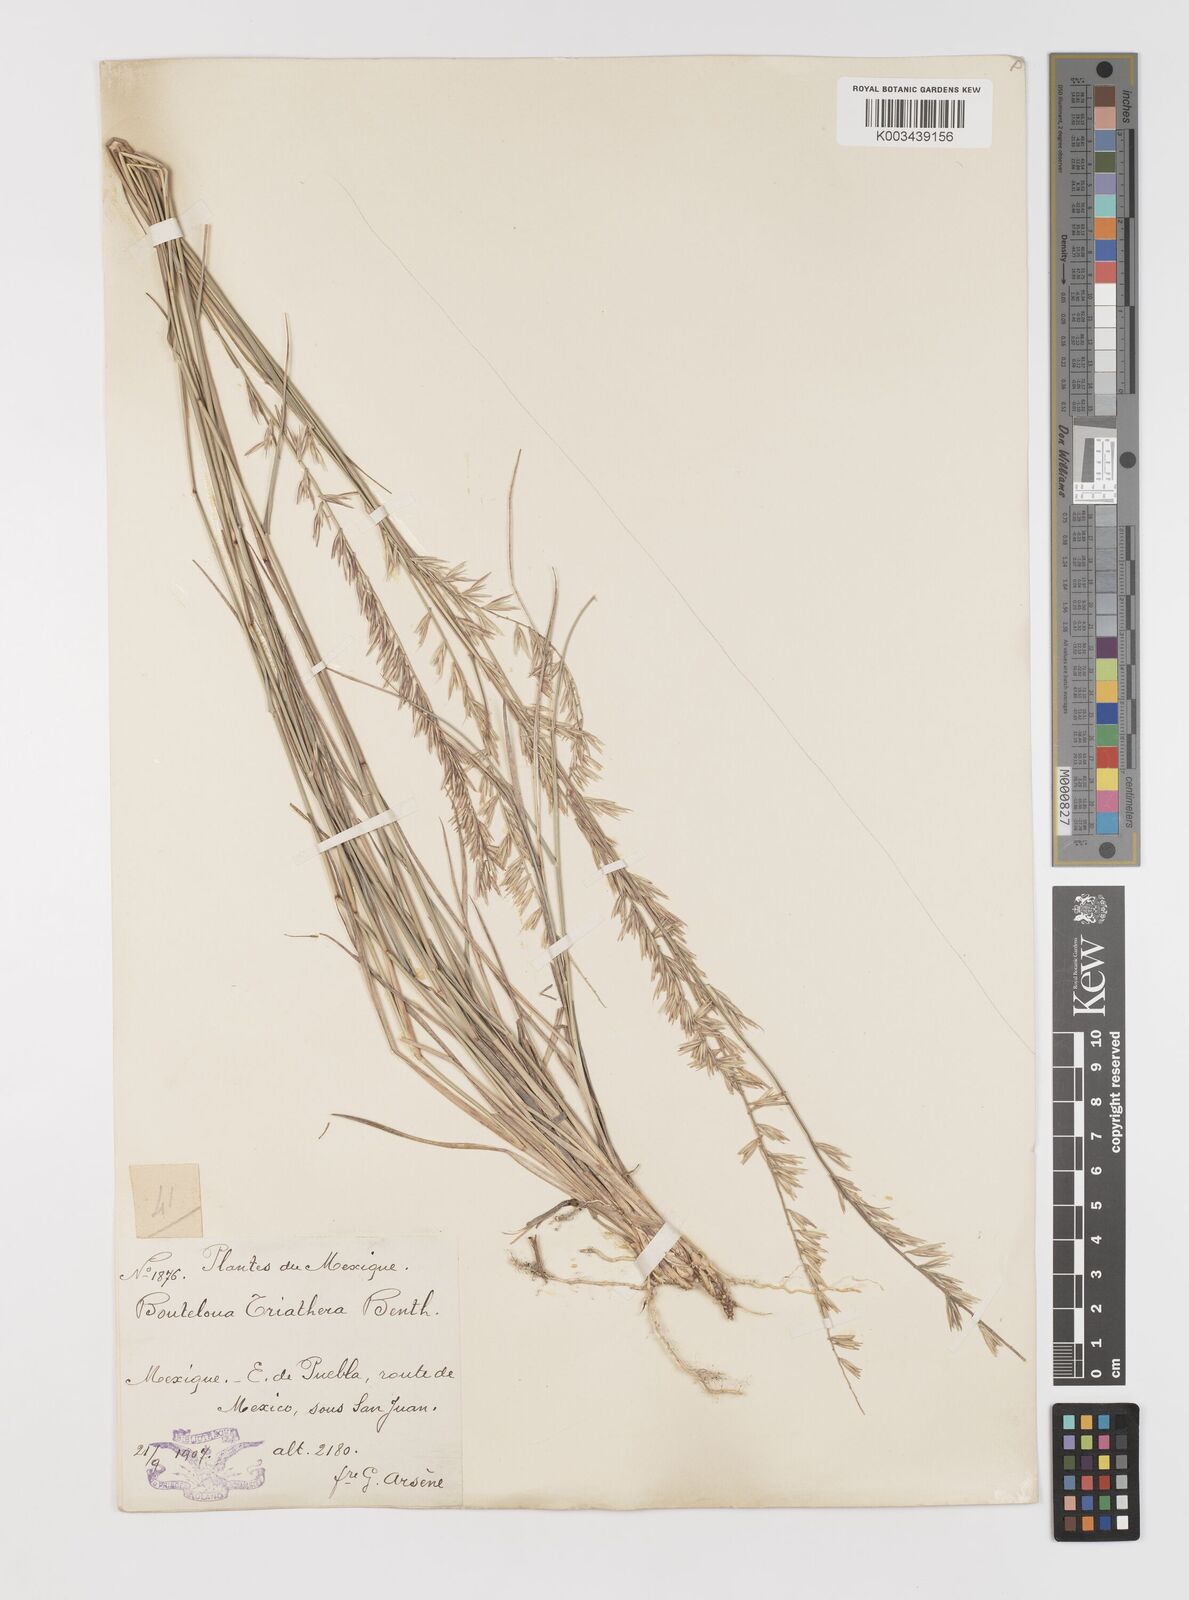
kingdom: Plantae
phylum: Tracheophyta
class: Liliopsida
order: Poales
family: Poaceae
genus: Bouteloua
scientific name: Bouteloua curtipendula
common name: Side-oats grama
